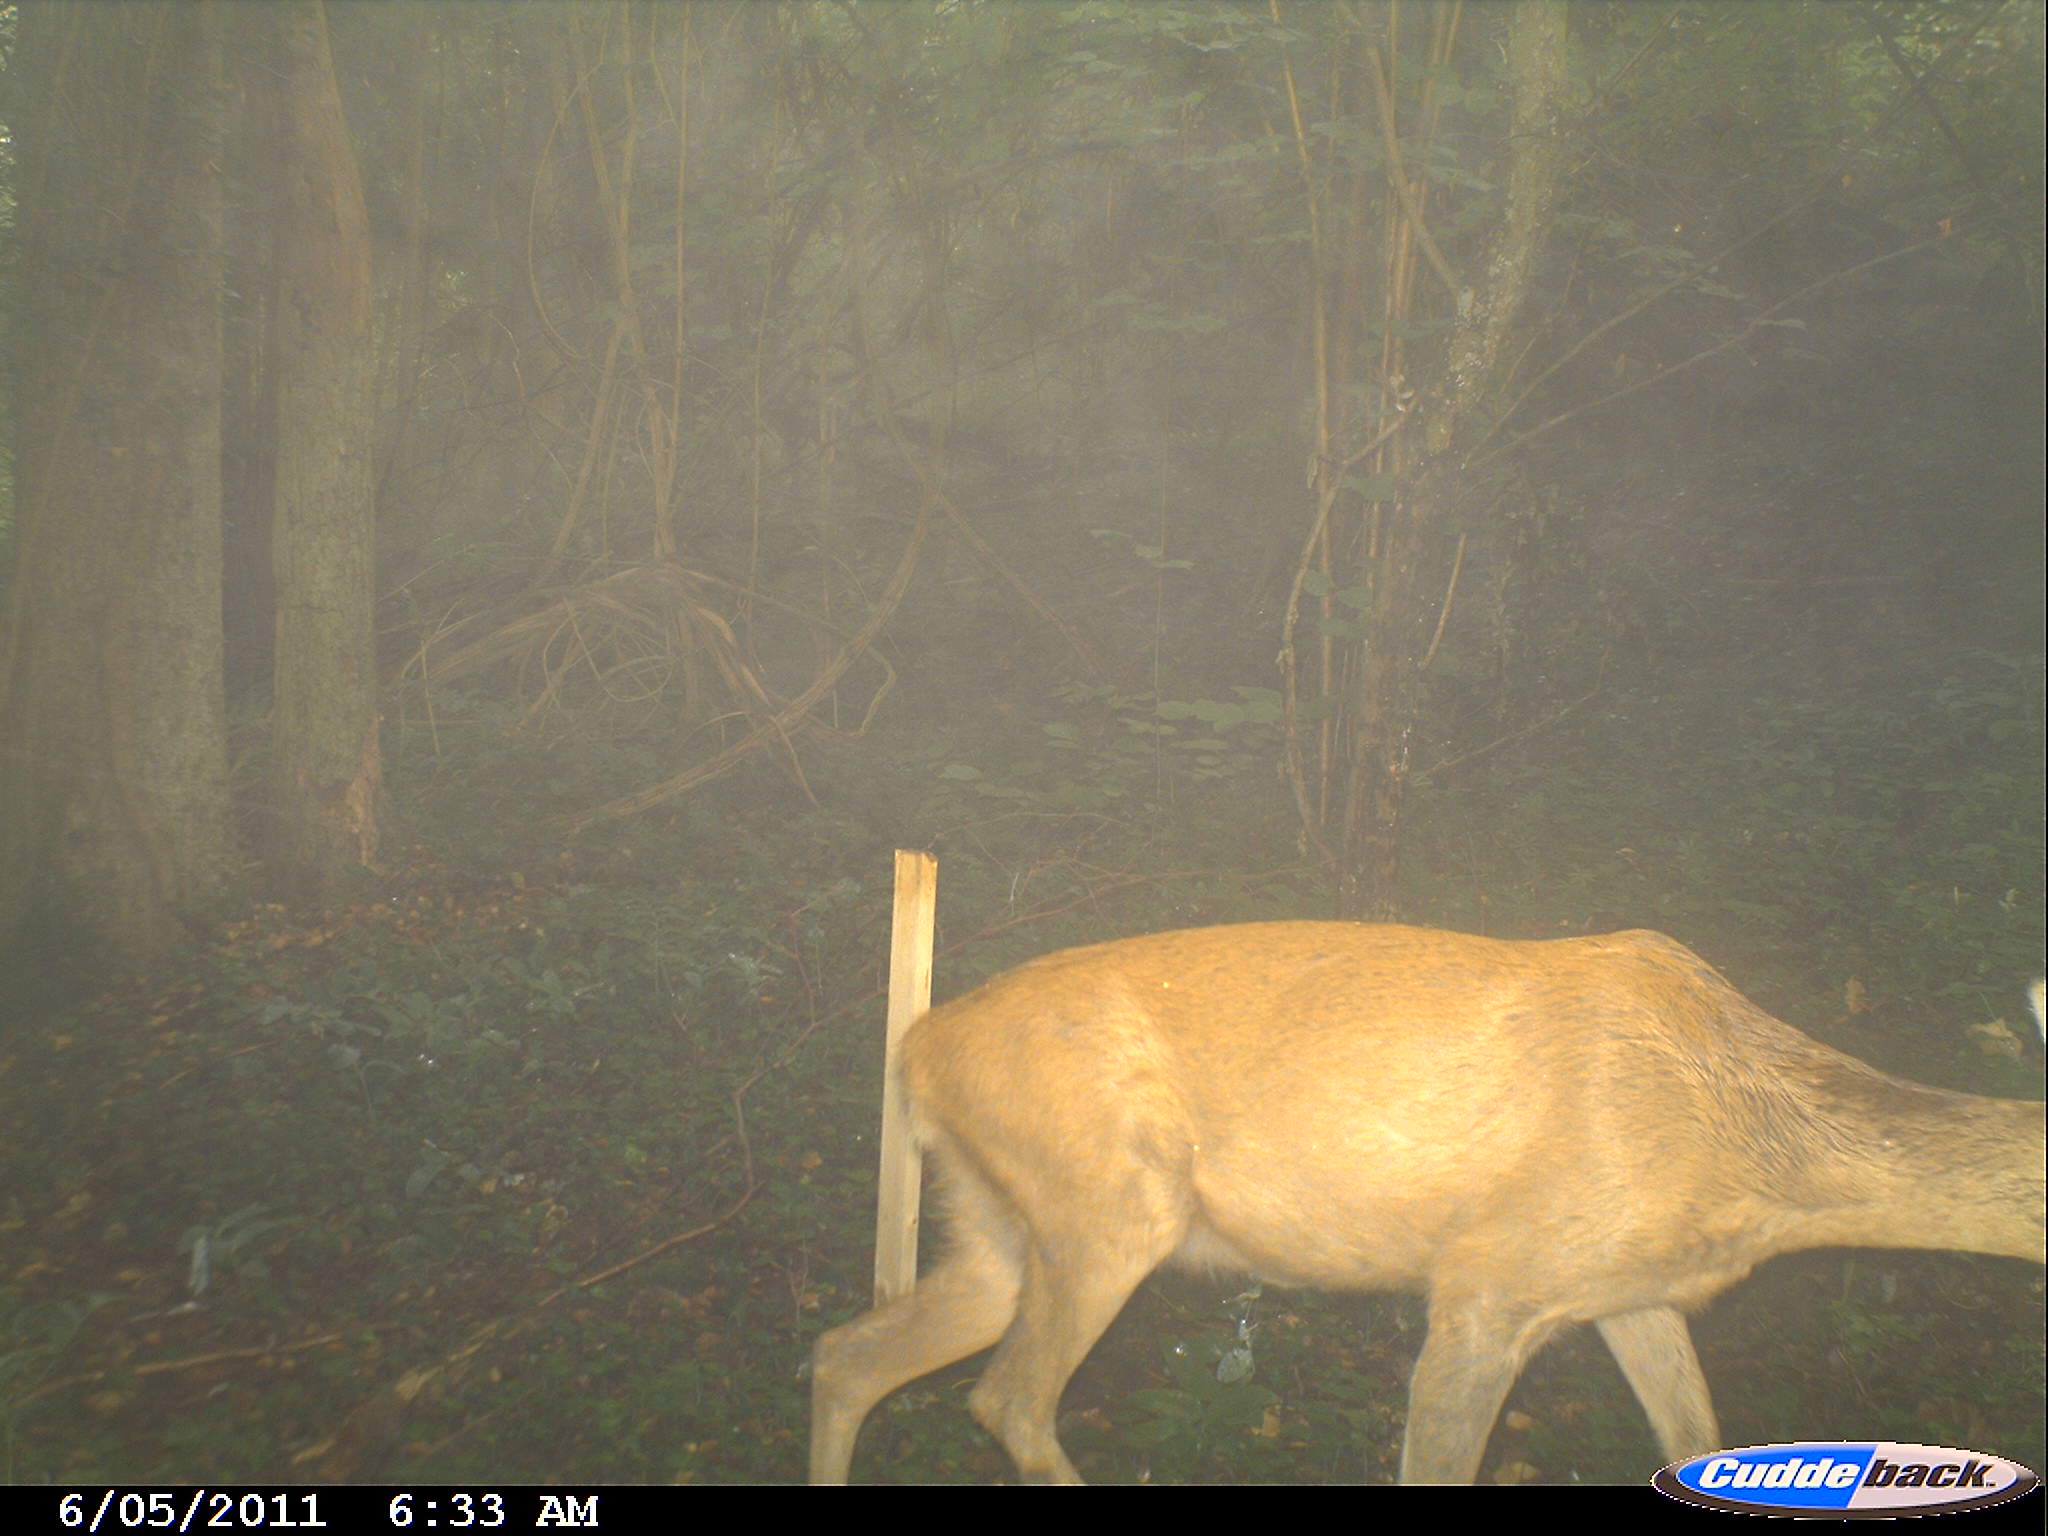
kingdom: Animalia
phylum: Chordata
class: Mammalia
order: Artiodactyla
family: Cervidae
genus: Capreolus
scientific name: Capreolus capreolus
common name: Western roe deer
